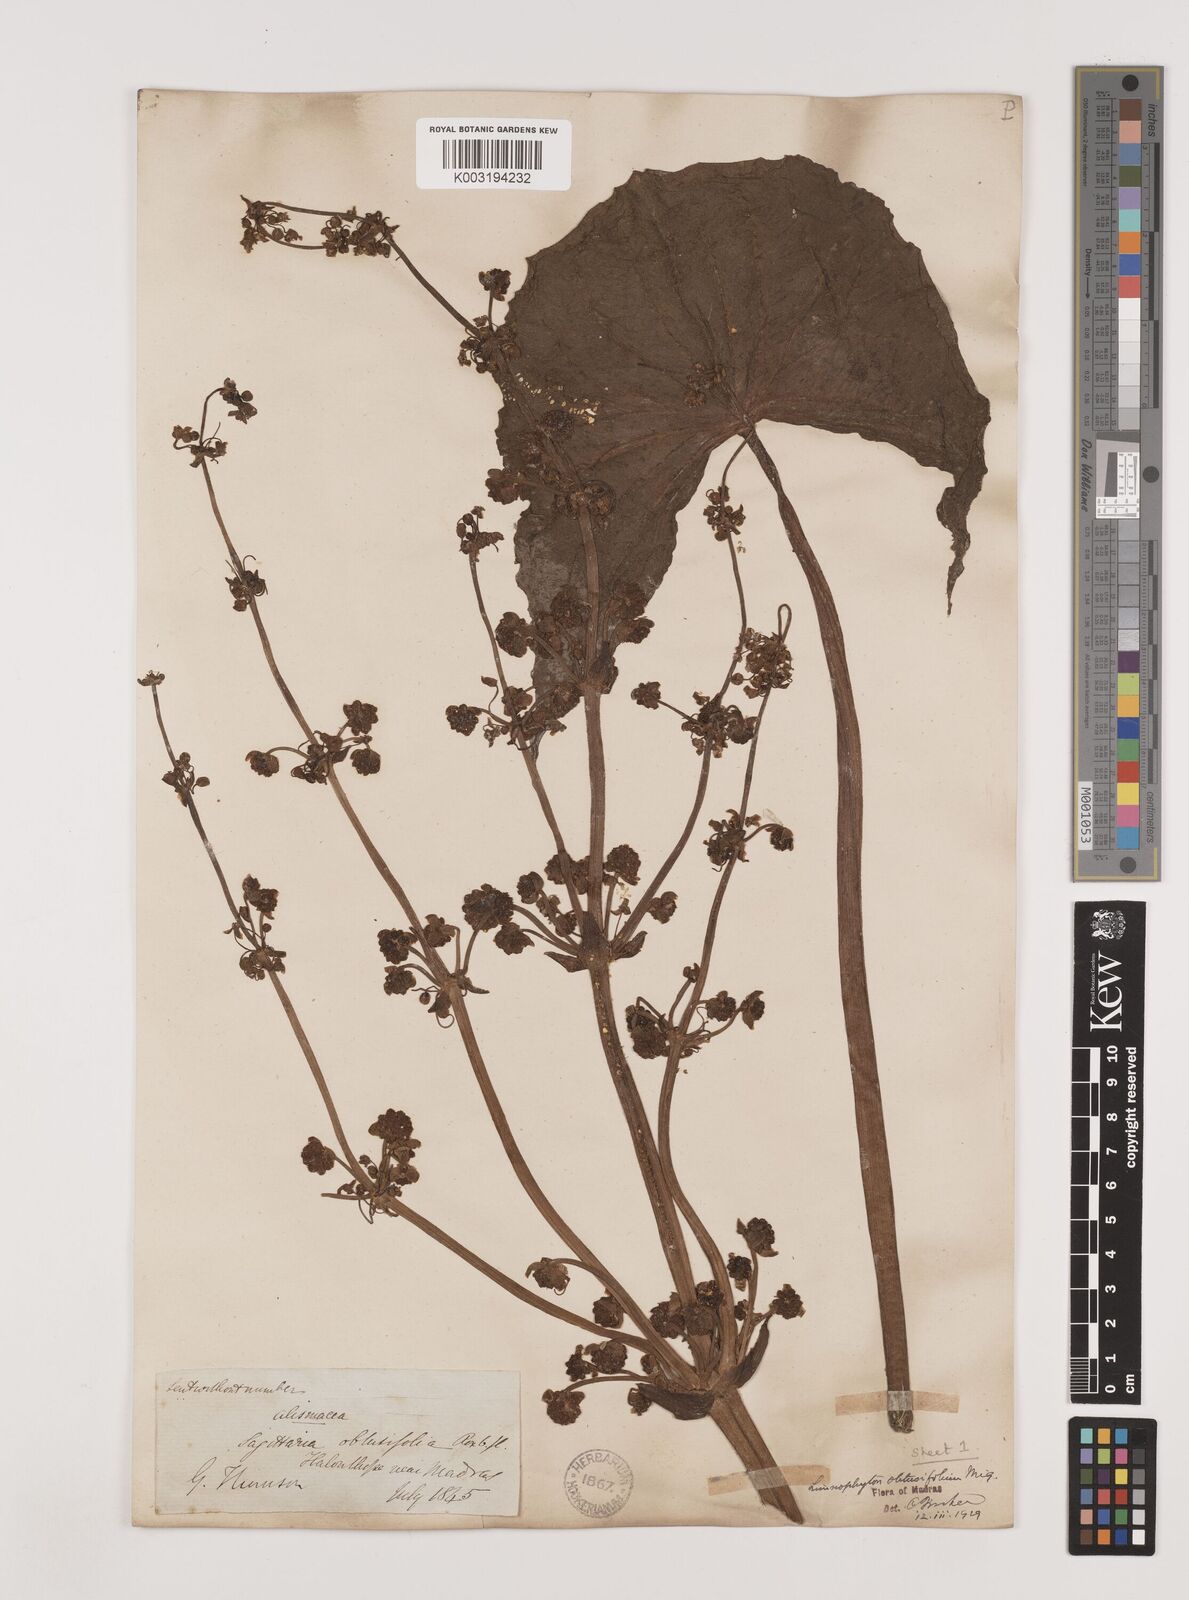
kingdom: Plantae
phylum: Tracheophyta
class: Liliopsida
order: Alismatales
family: Alismataceae
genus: Limnophyton
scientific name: Limnophyton obtusifolium
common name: Arrow head
